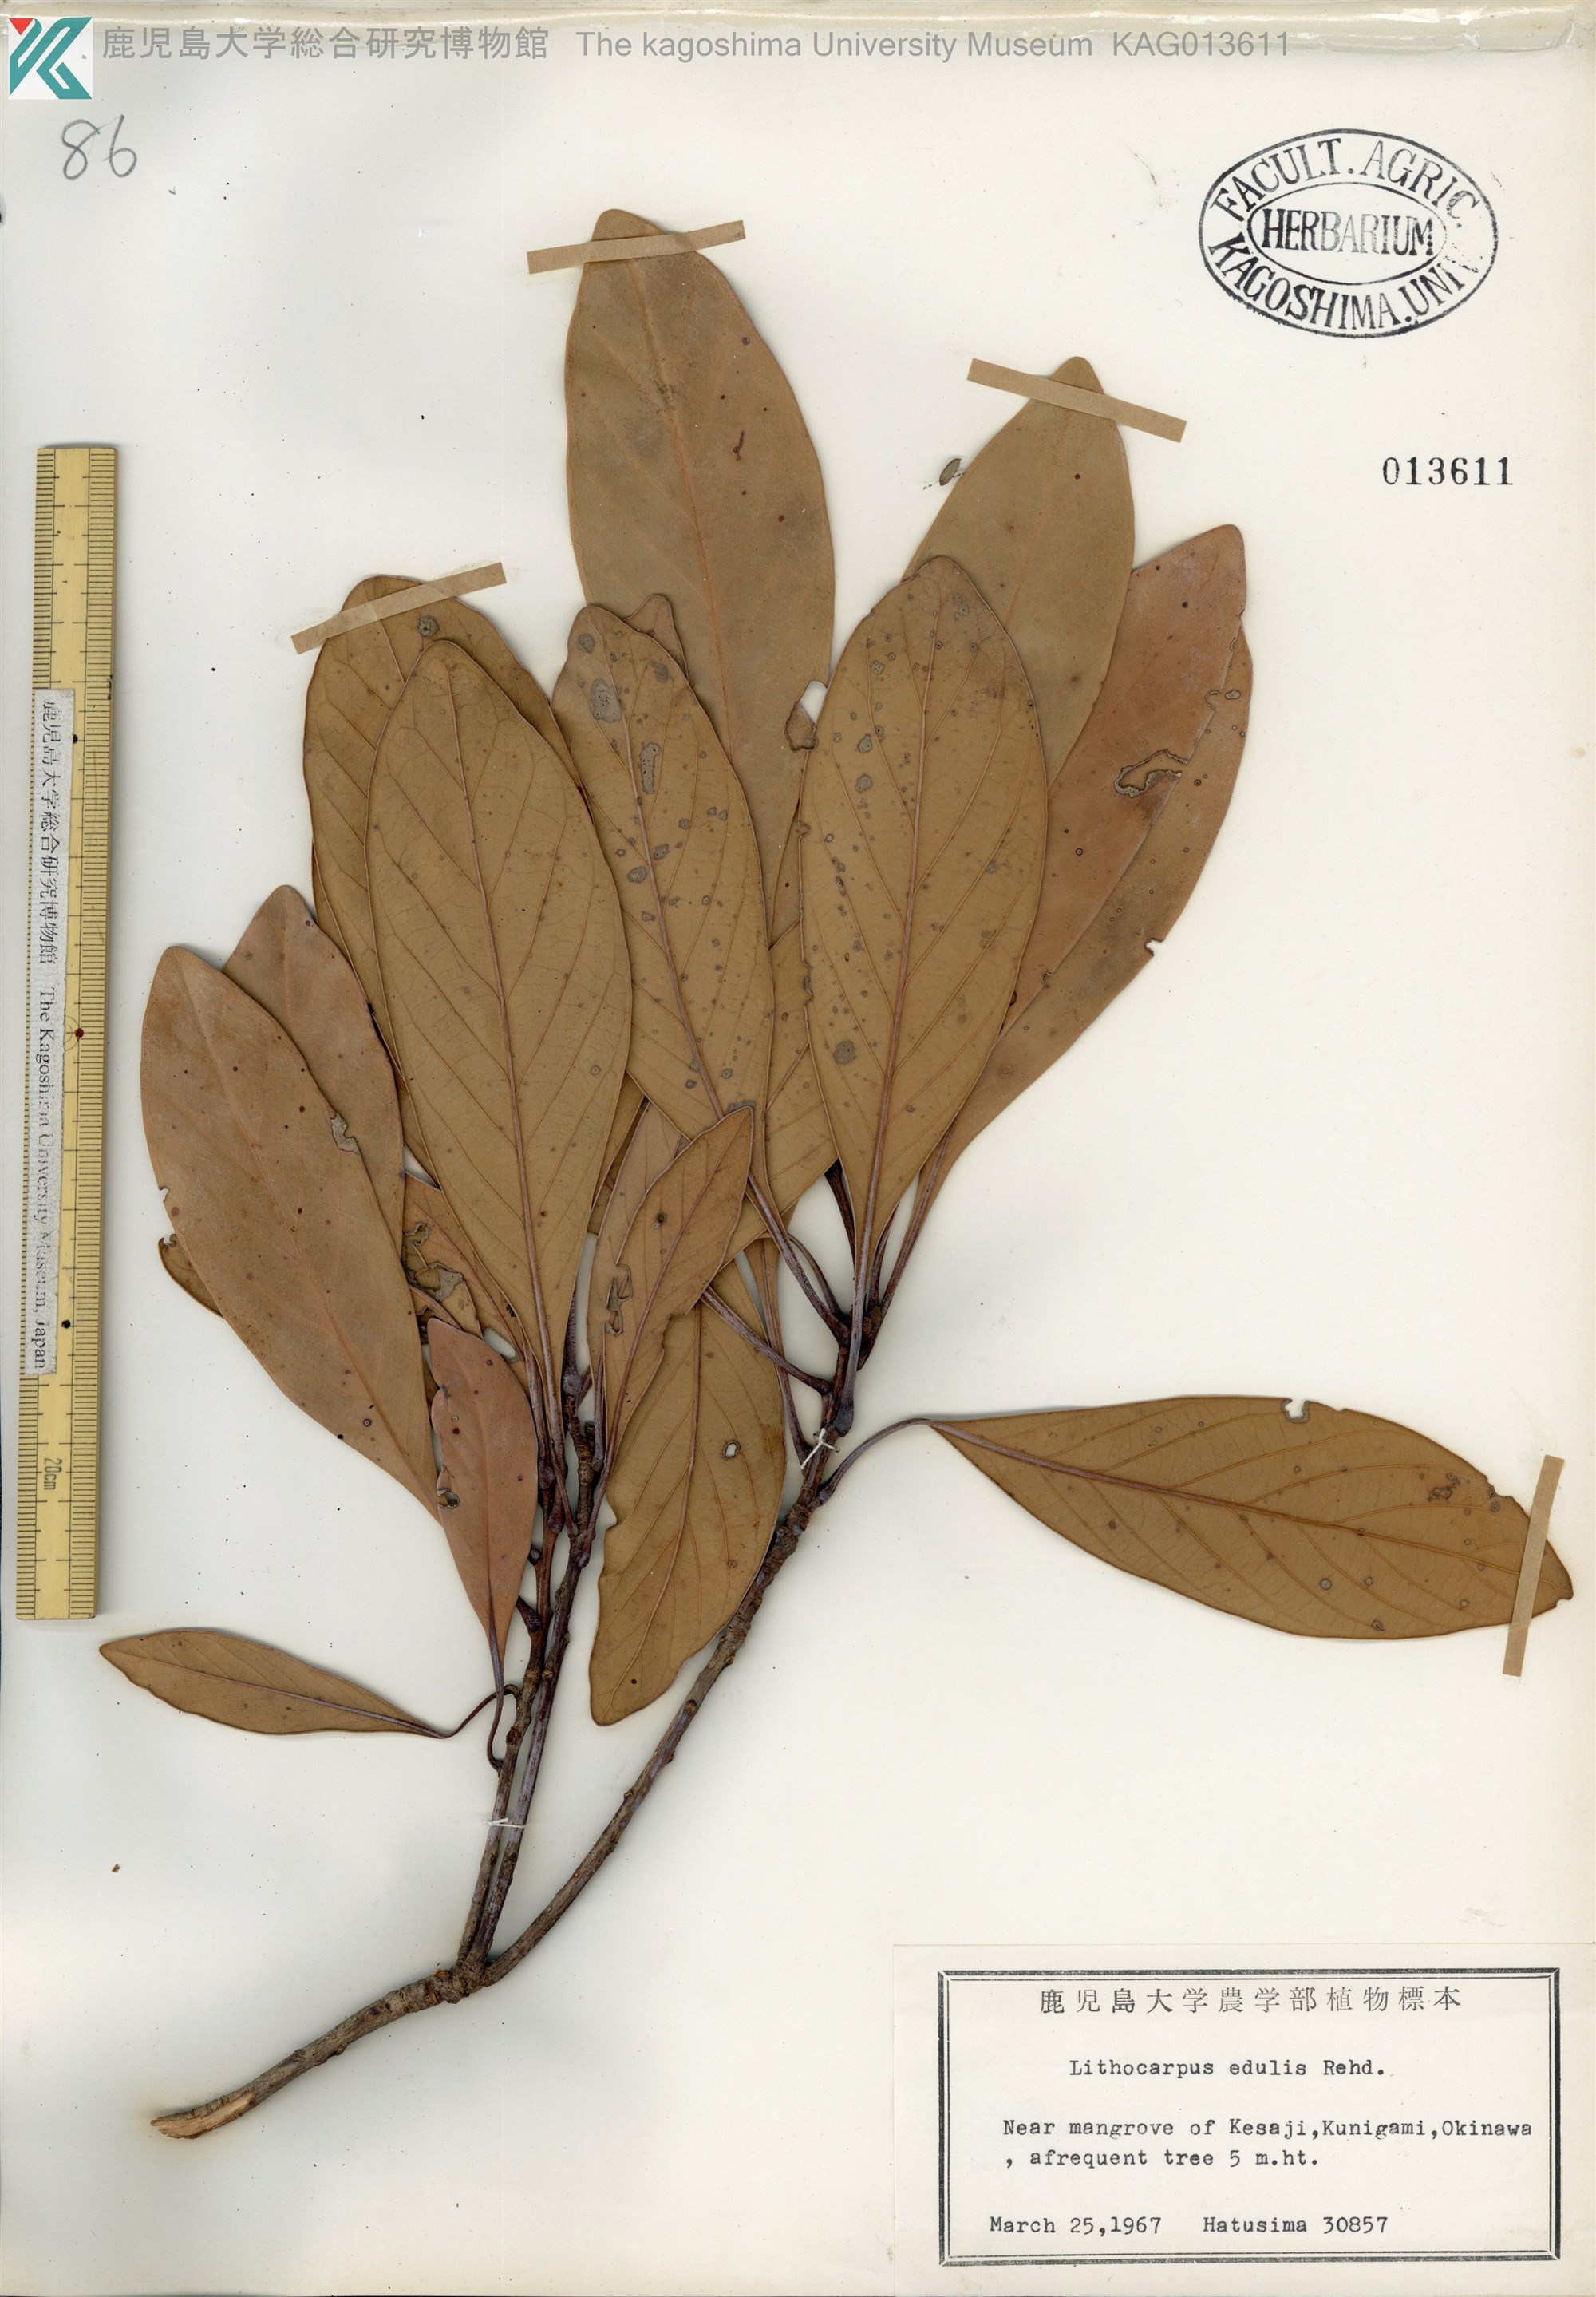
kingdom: Plantae
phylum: Tracheophyta
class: Magnoliopsida
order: Fagales
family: Fagaceae
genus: Lithocarpus
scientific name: Lithocarpus edulis
